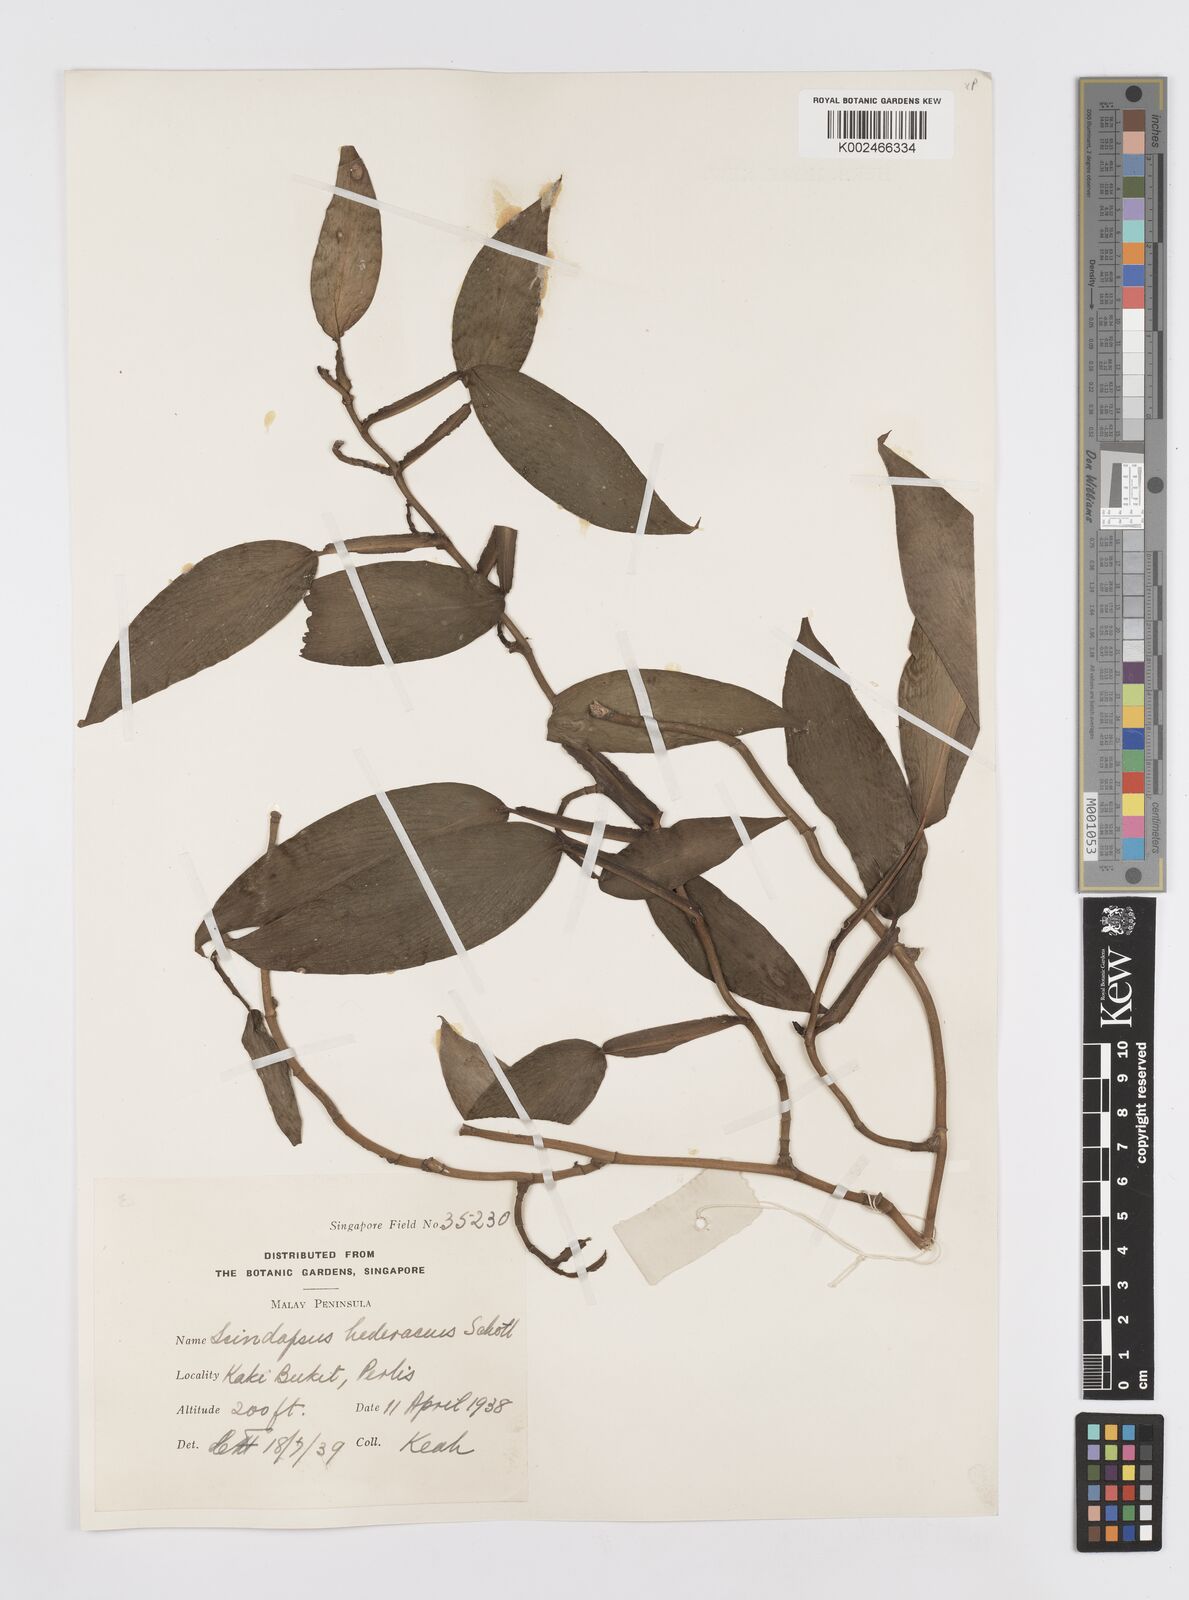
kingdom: Plantae
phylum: Tracheophyta
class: Liliopsida
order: Alismatales
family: Araceae
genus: Scindapsus
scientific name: Scindapsus hederaceus
